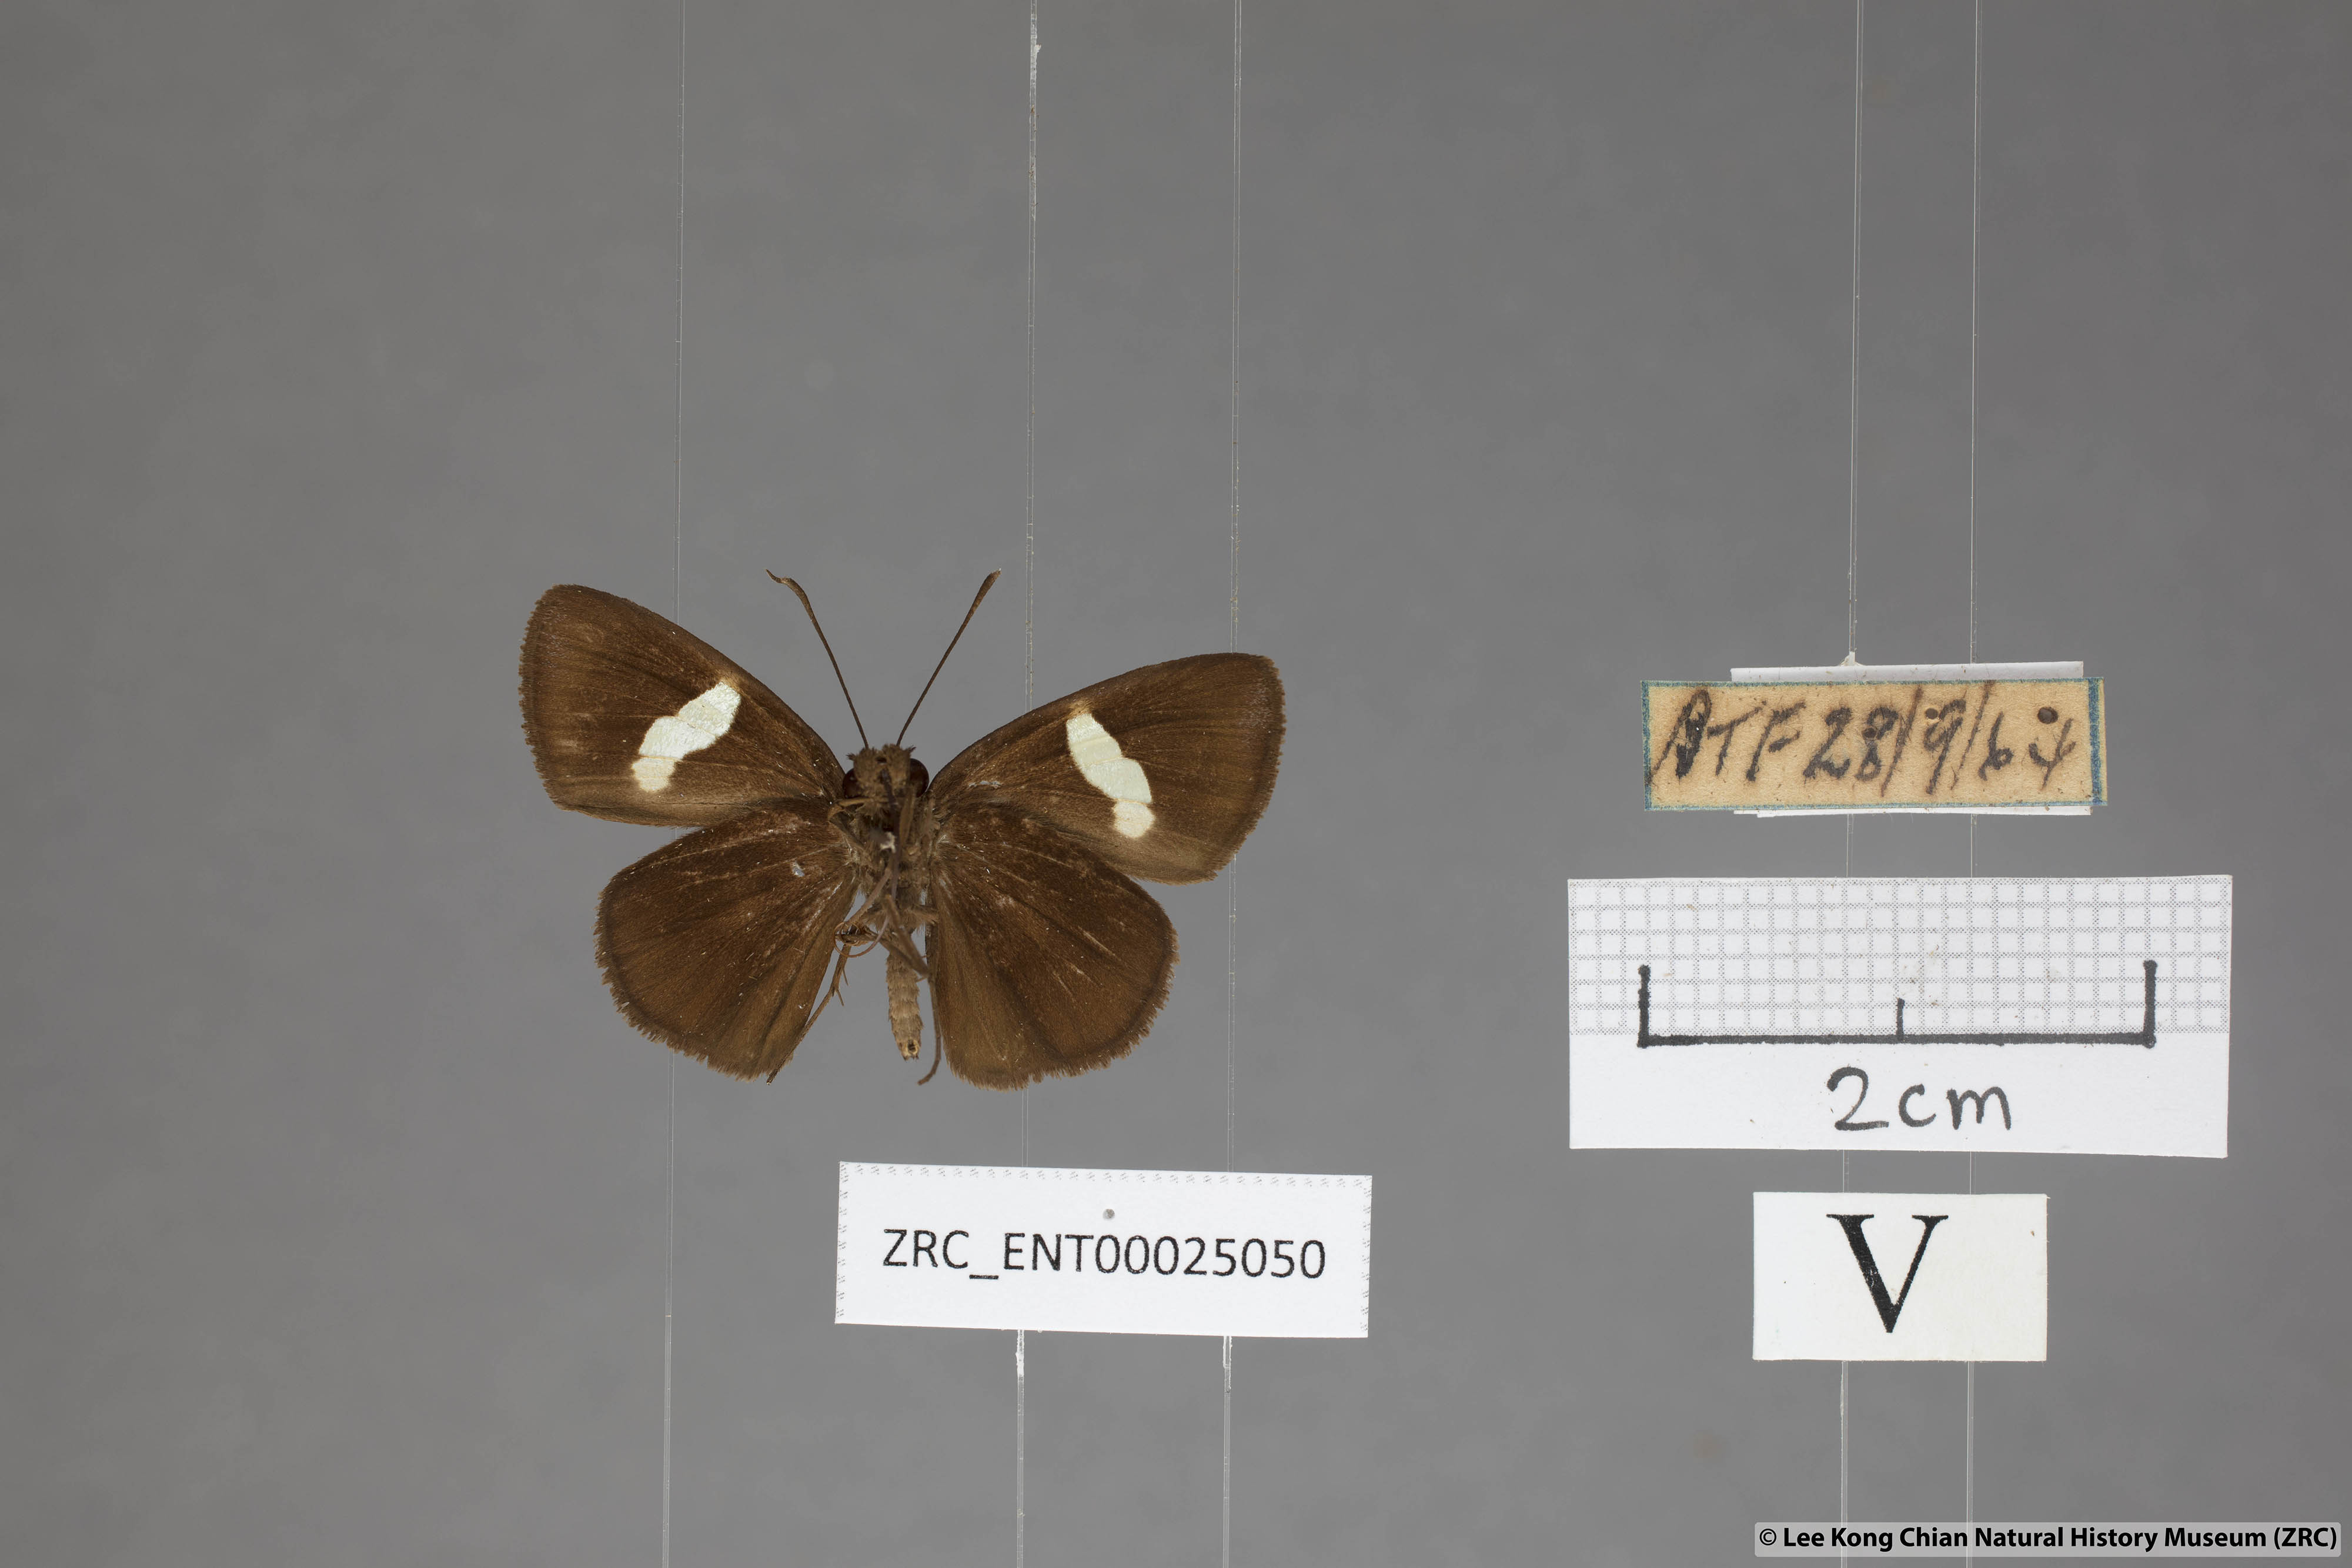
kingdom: Animalia
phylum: Arthropoda
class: Insecta
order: Lepidoptera
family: Hesperiidae
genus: Notocrypta
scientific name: Notocrypta pria
